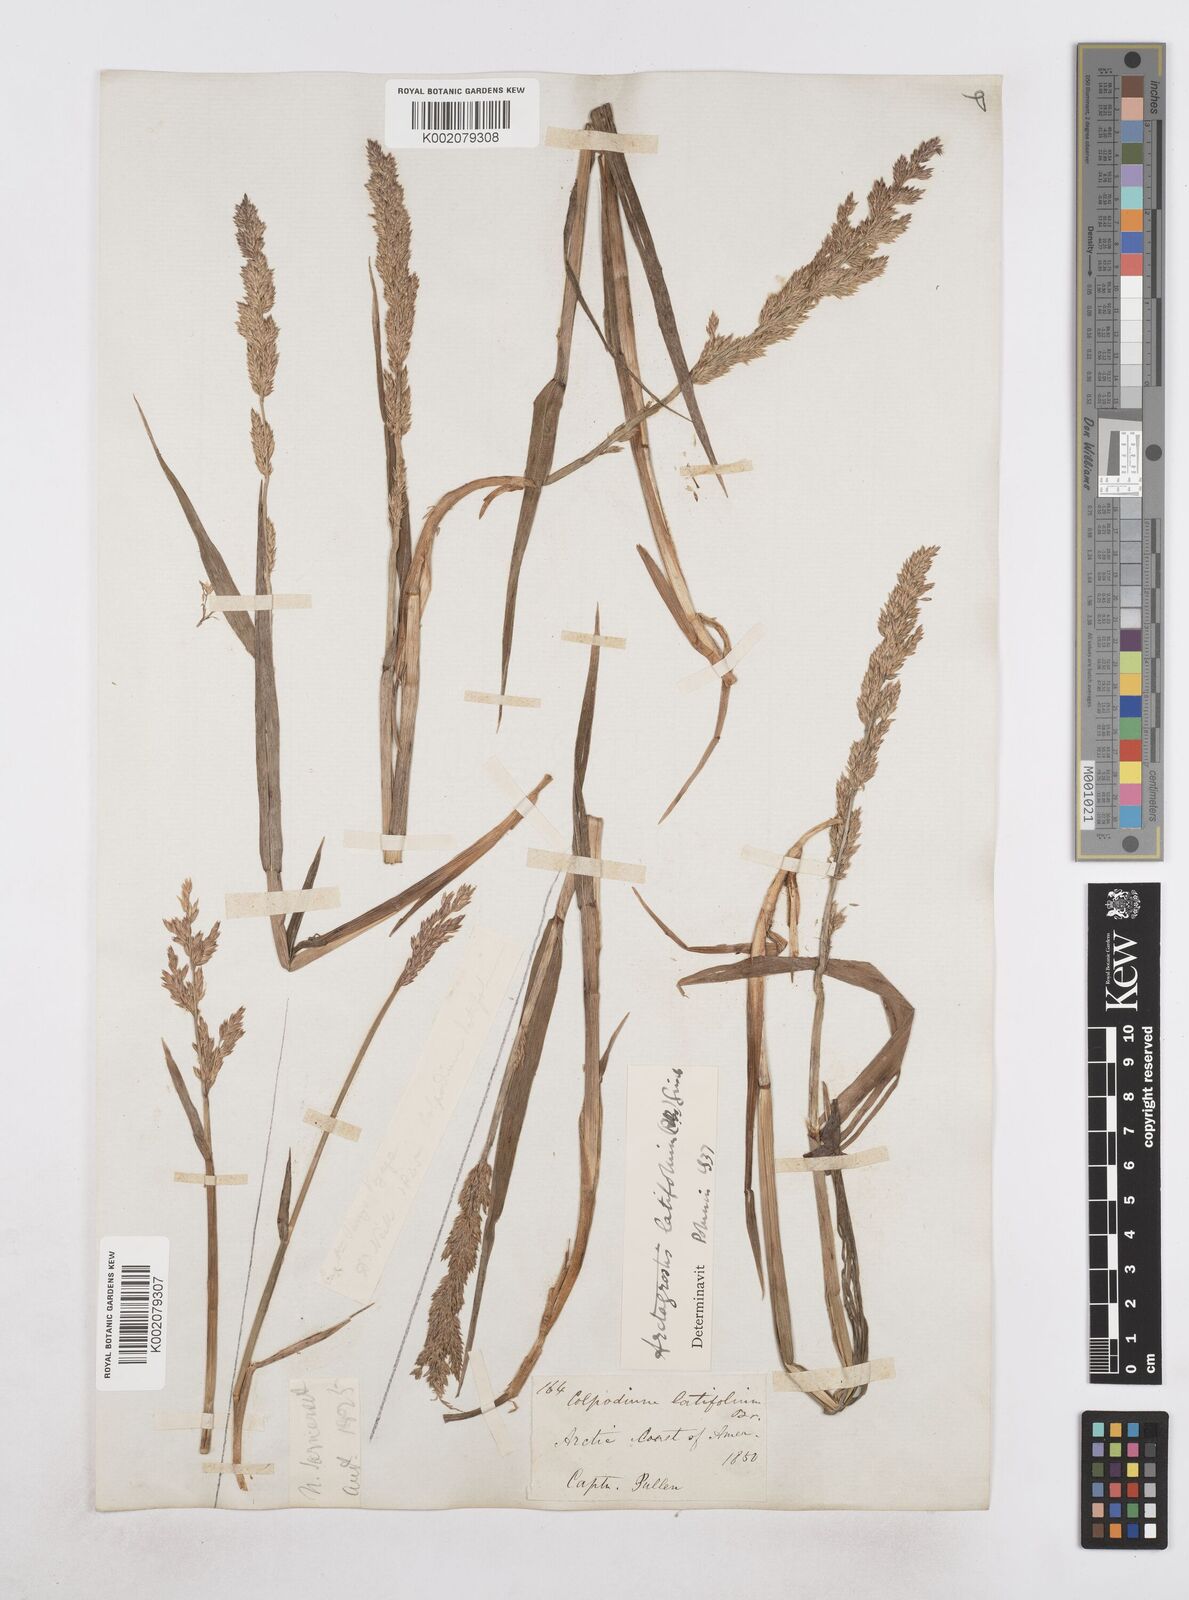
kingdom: Plantae
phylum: Tracheophyta
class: Liliopsida
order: Poales
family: Poaceae
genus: Arctagrostis
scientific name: Arctagrostis latifolia
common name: Arctic grass
